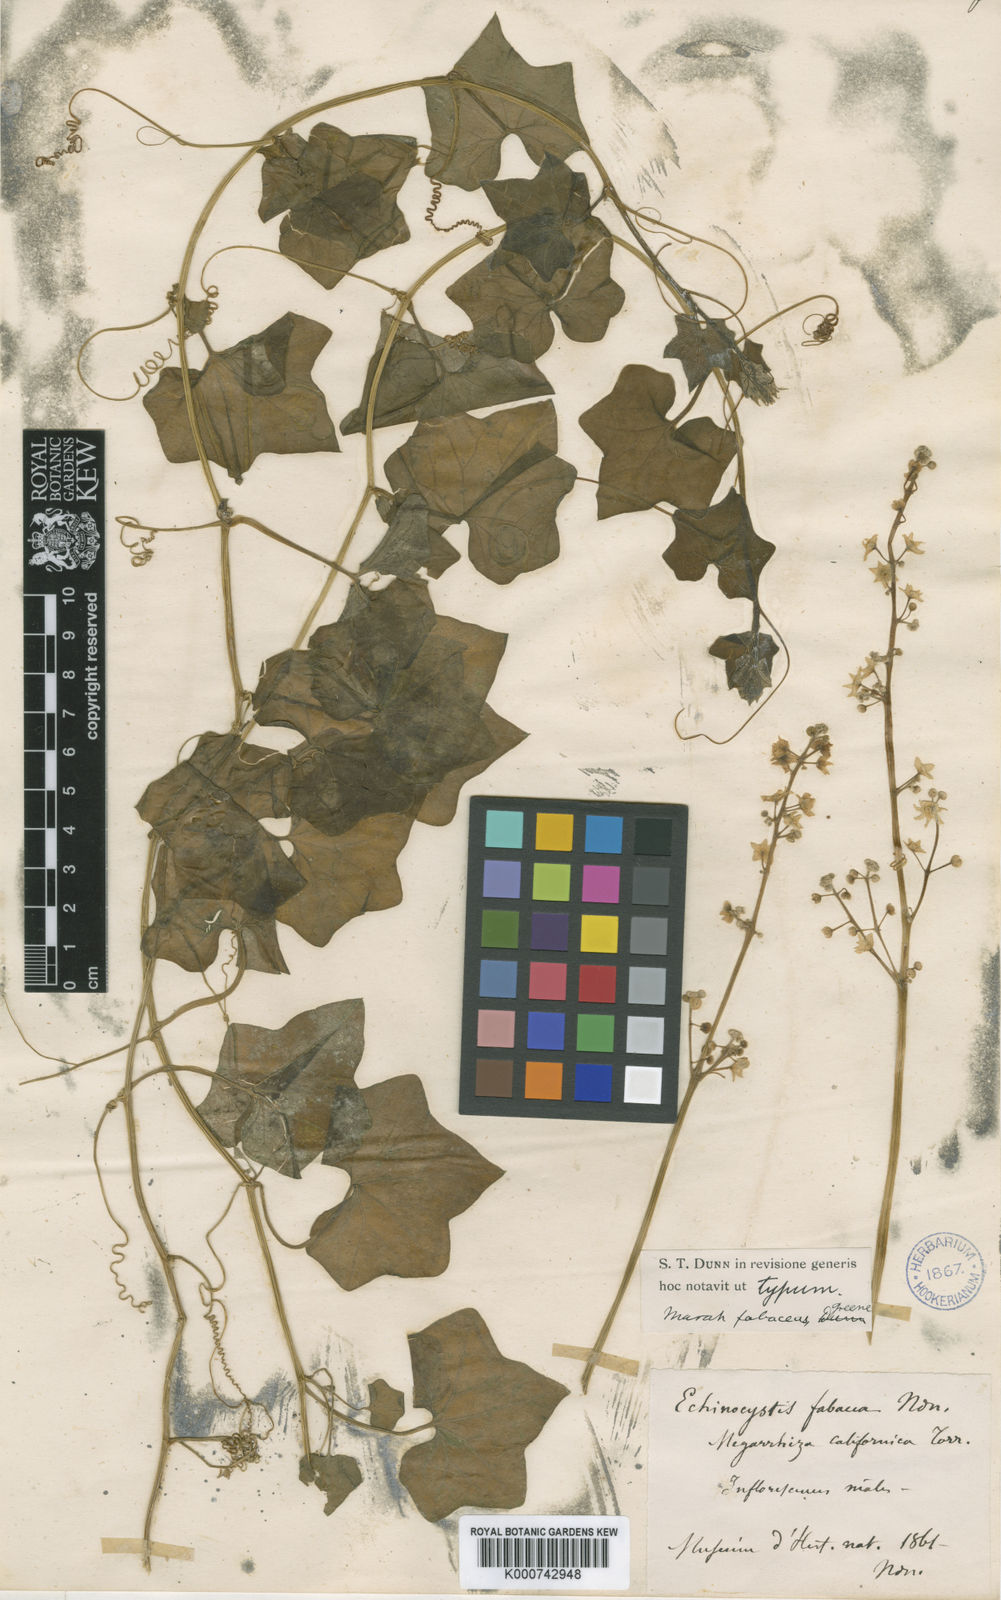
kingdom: Plantae
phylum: Tracheophyta
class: Magnoliopsida
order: Cucurbitales
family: Cucurbitaceae
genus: Marah
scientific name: Marah
